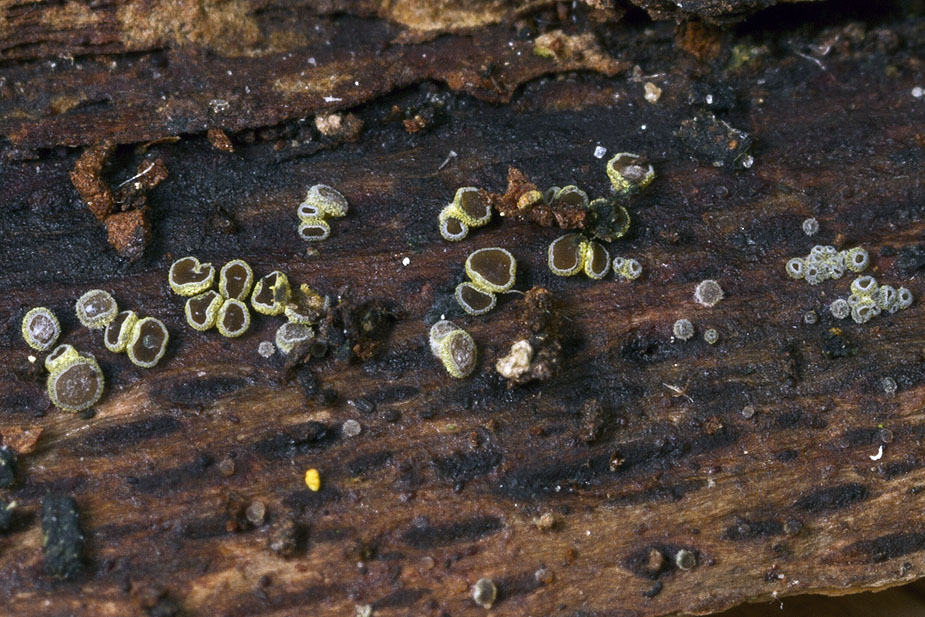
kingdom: Fungi
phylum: Ascomycota
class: Leotiomycetes
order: Helotiales
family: Hyphodiscaceae
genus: Hyphodiscus
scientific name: Hyphodiscus theiodeus
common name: voksskind-sirskive
